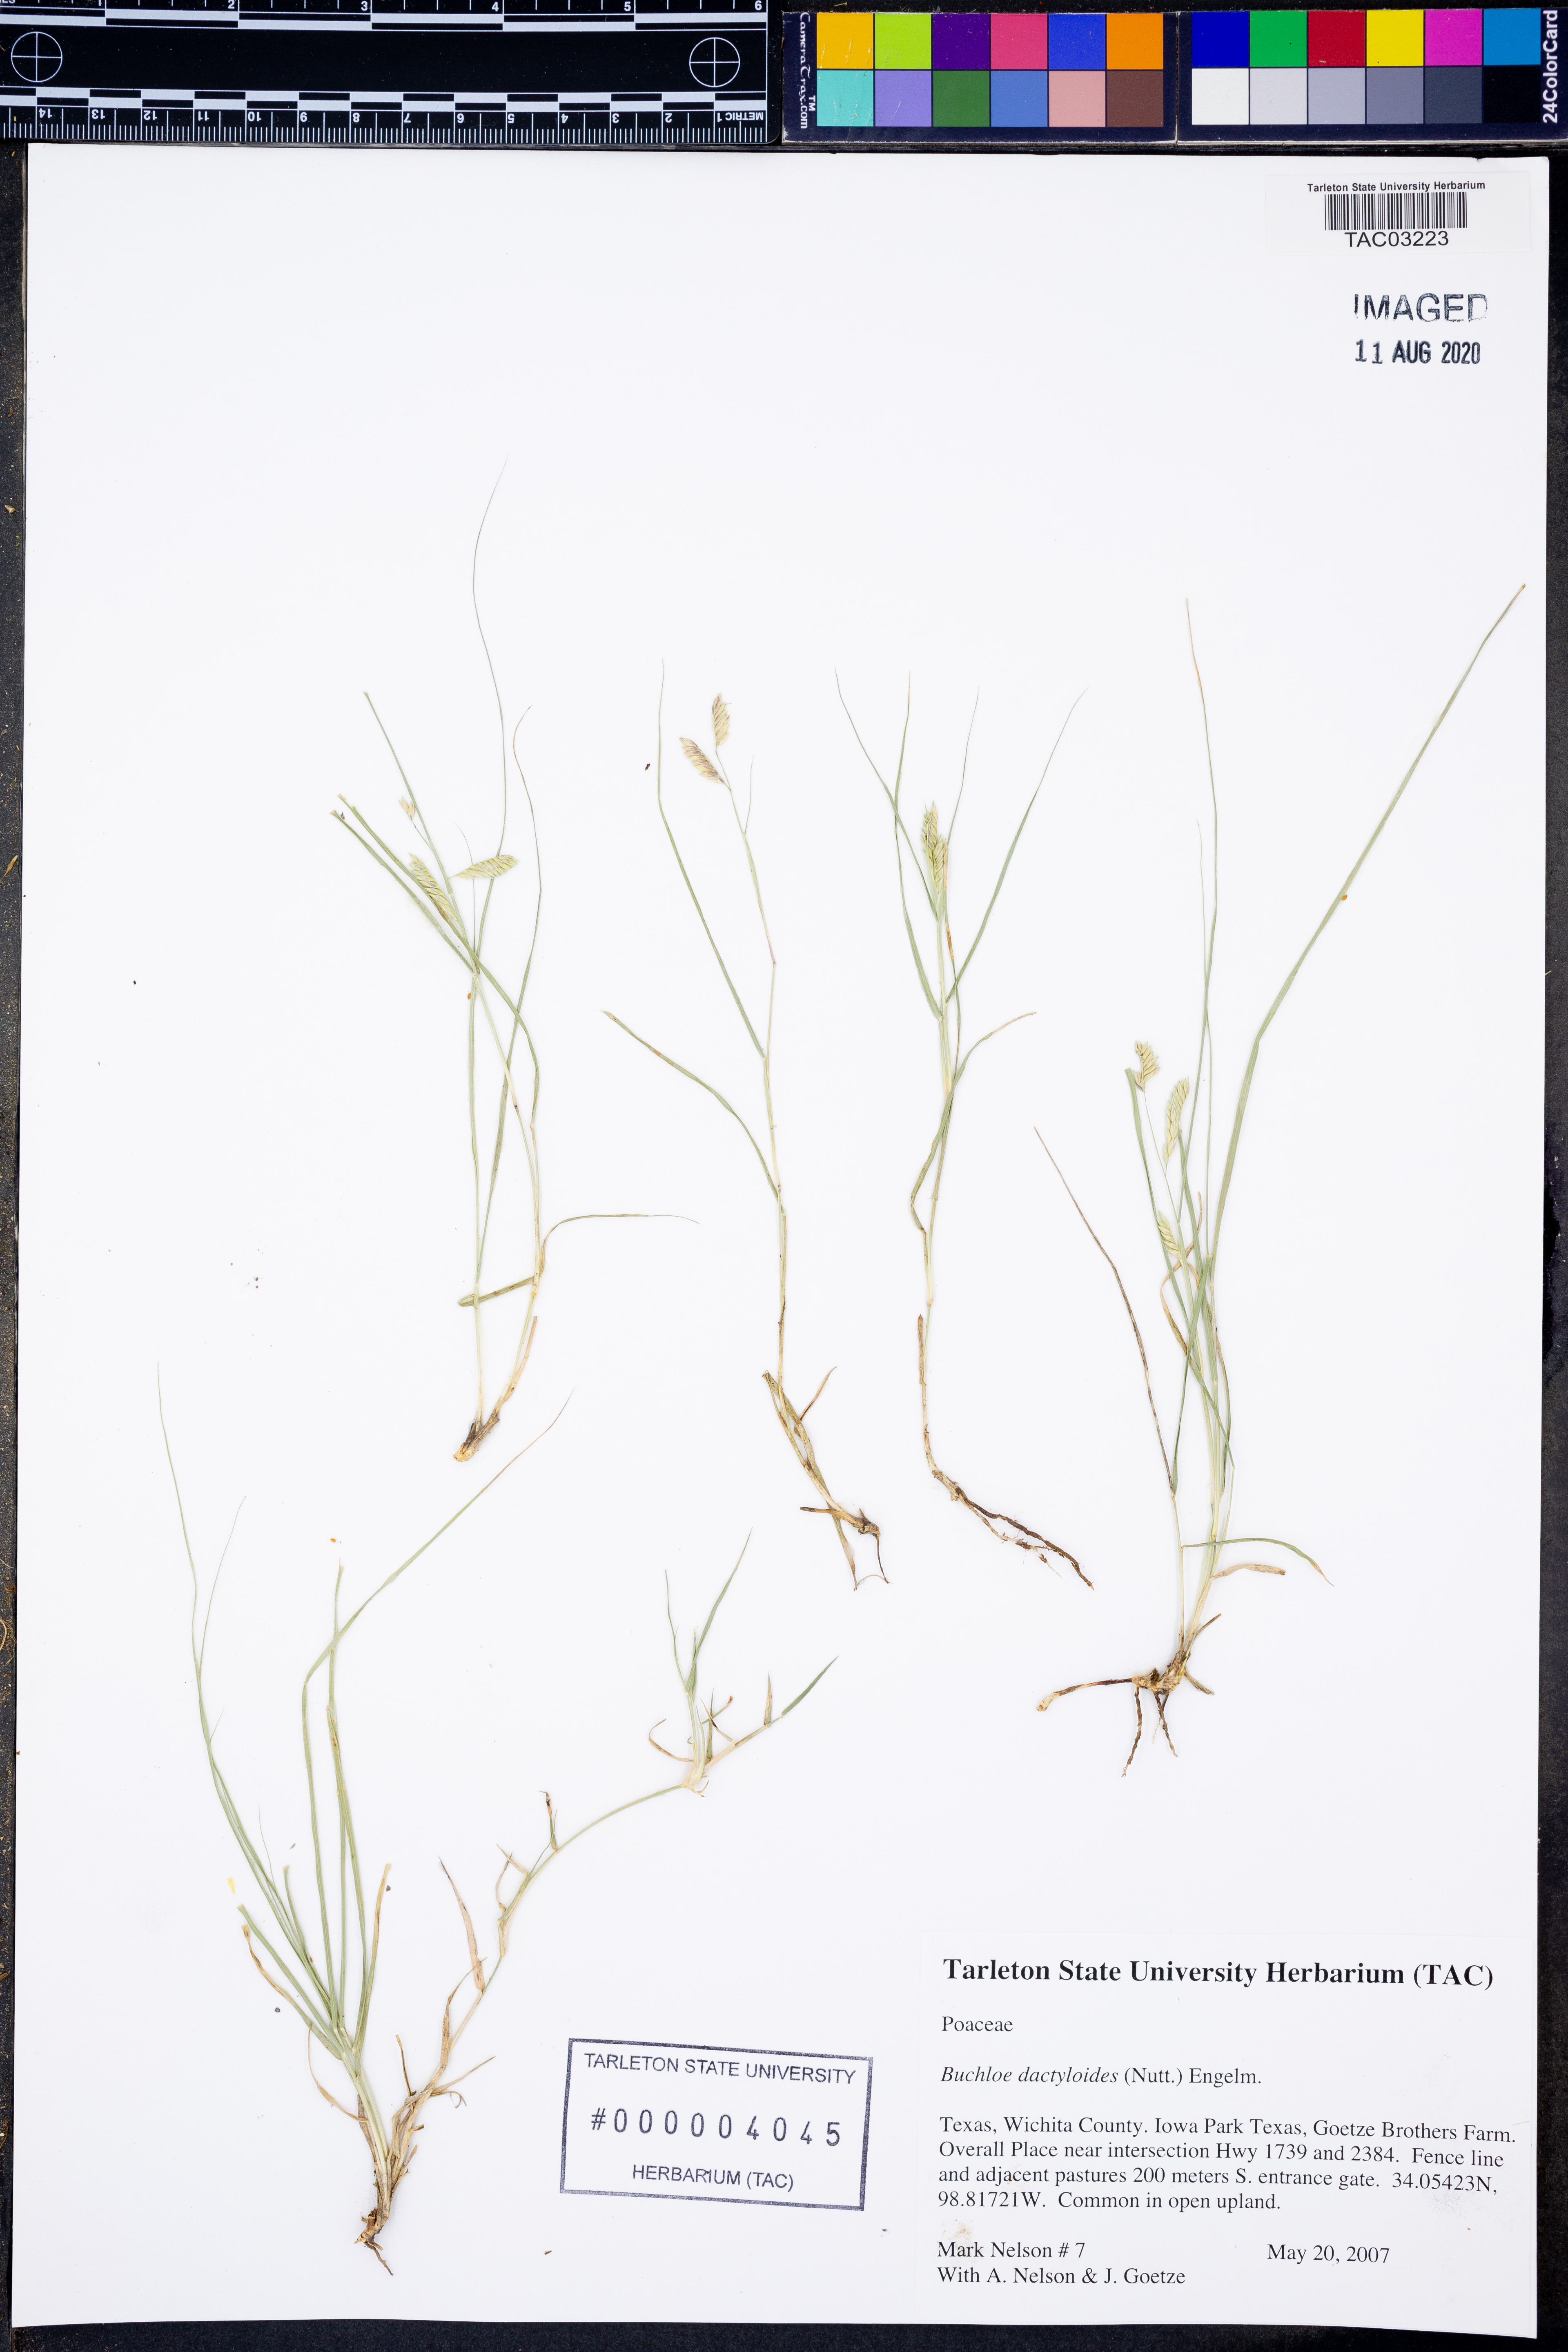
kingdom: Plantae
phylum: Tracheophyta
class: Liliopsida
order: Poales
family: Poaceae
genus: Bouteloua
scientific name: Bouteloua dactyloides
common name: Buffalo grass
